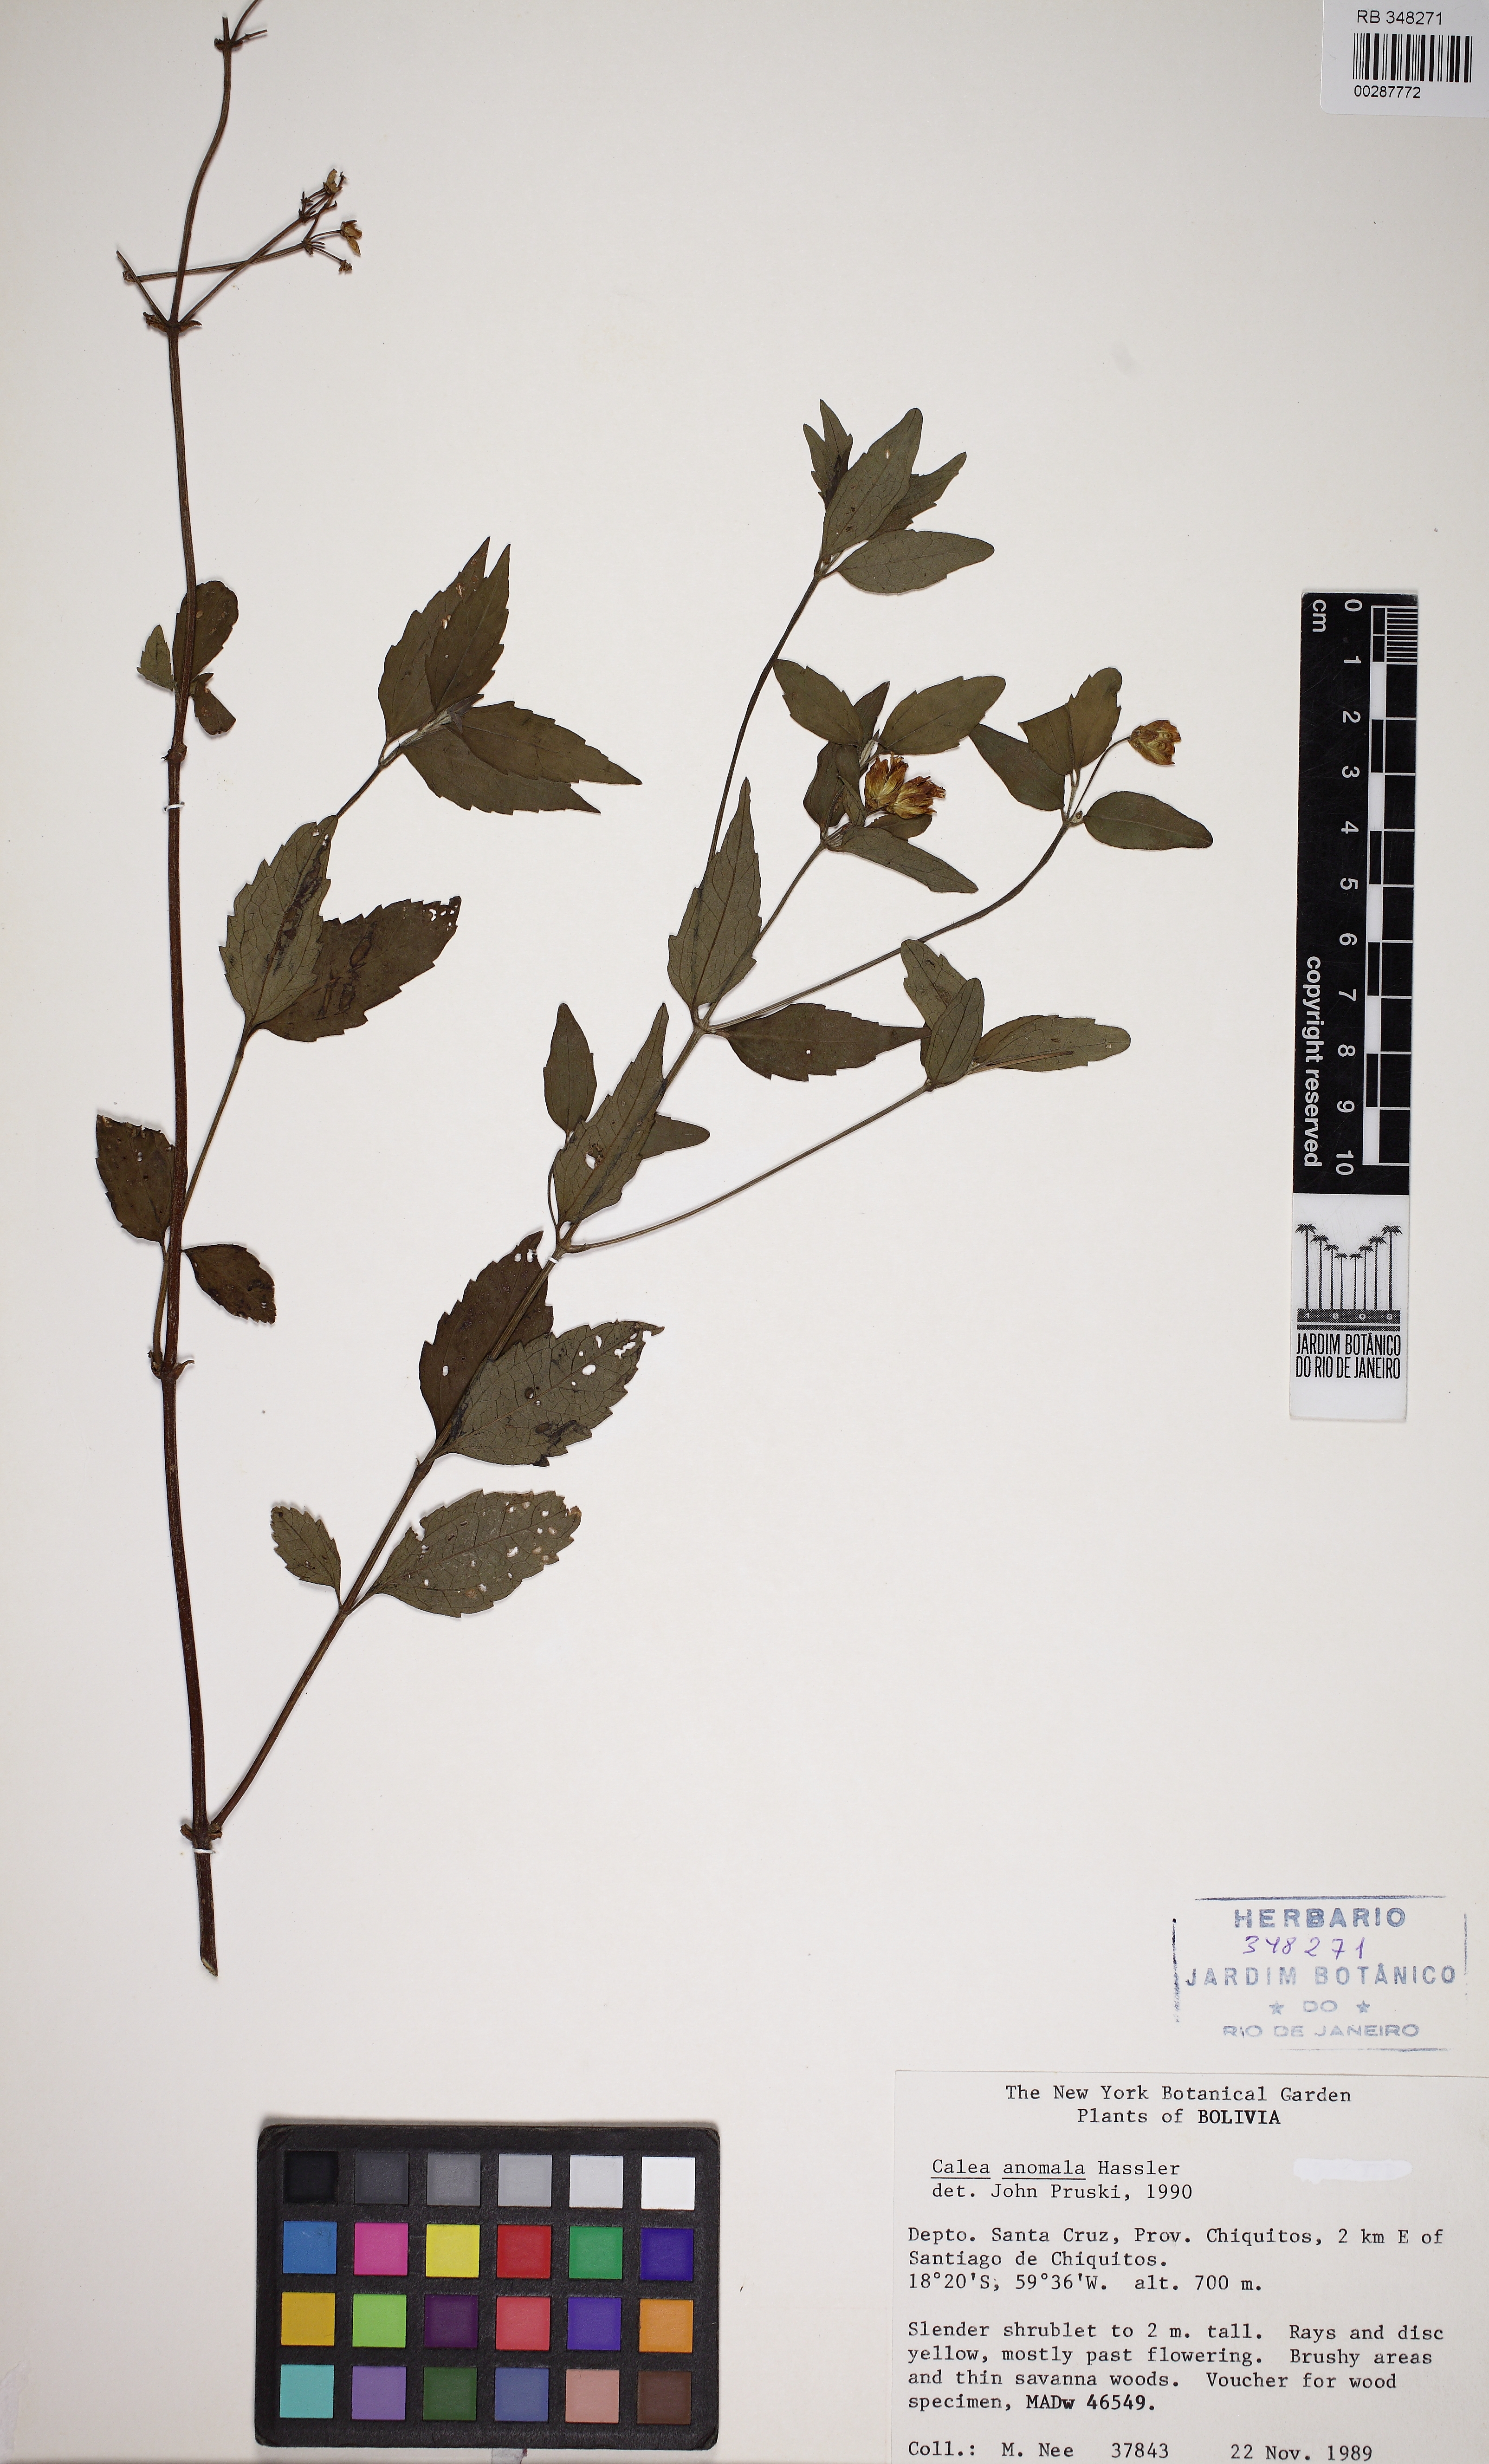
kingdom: Plantae
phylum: Tracheophyta
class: Magnoliopsida
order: Asterales
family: Asteraceae
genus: Calea
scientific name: Calea anomala
